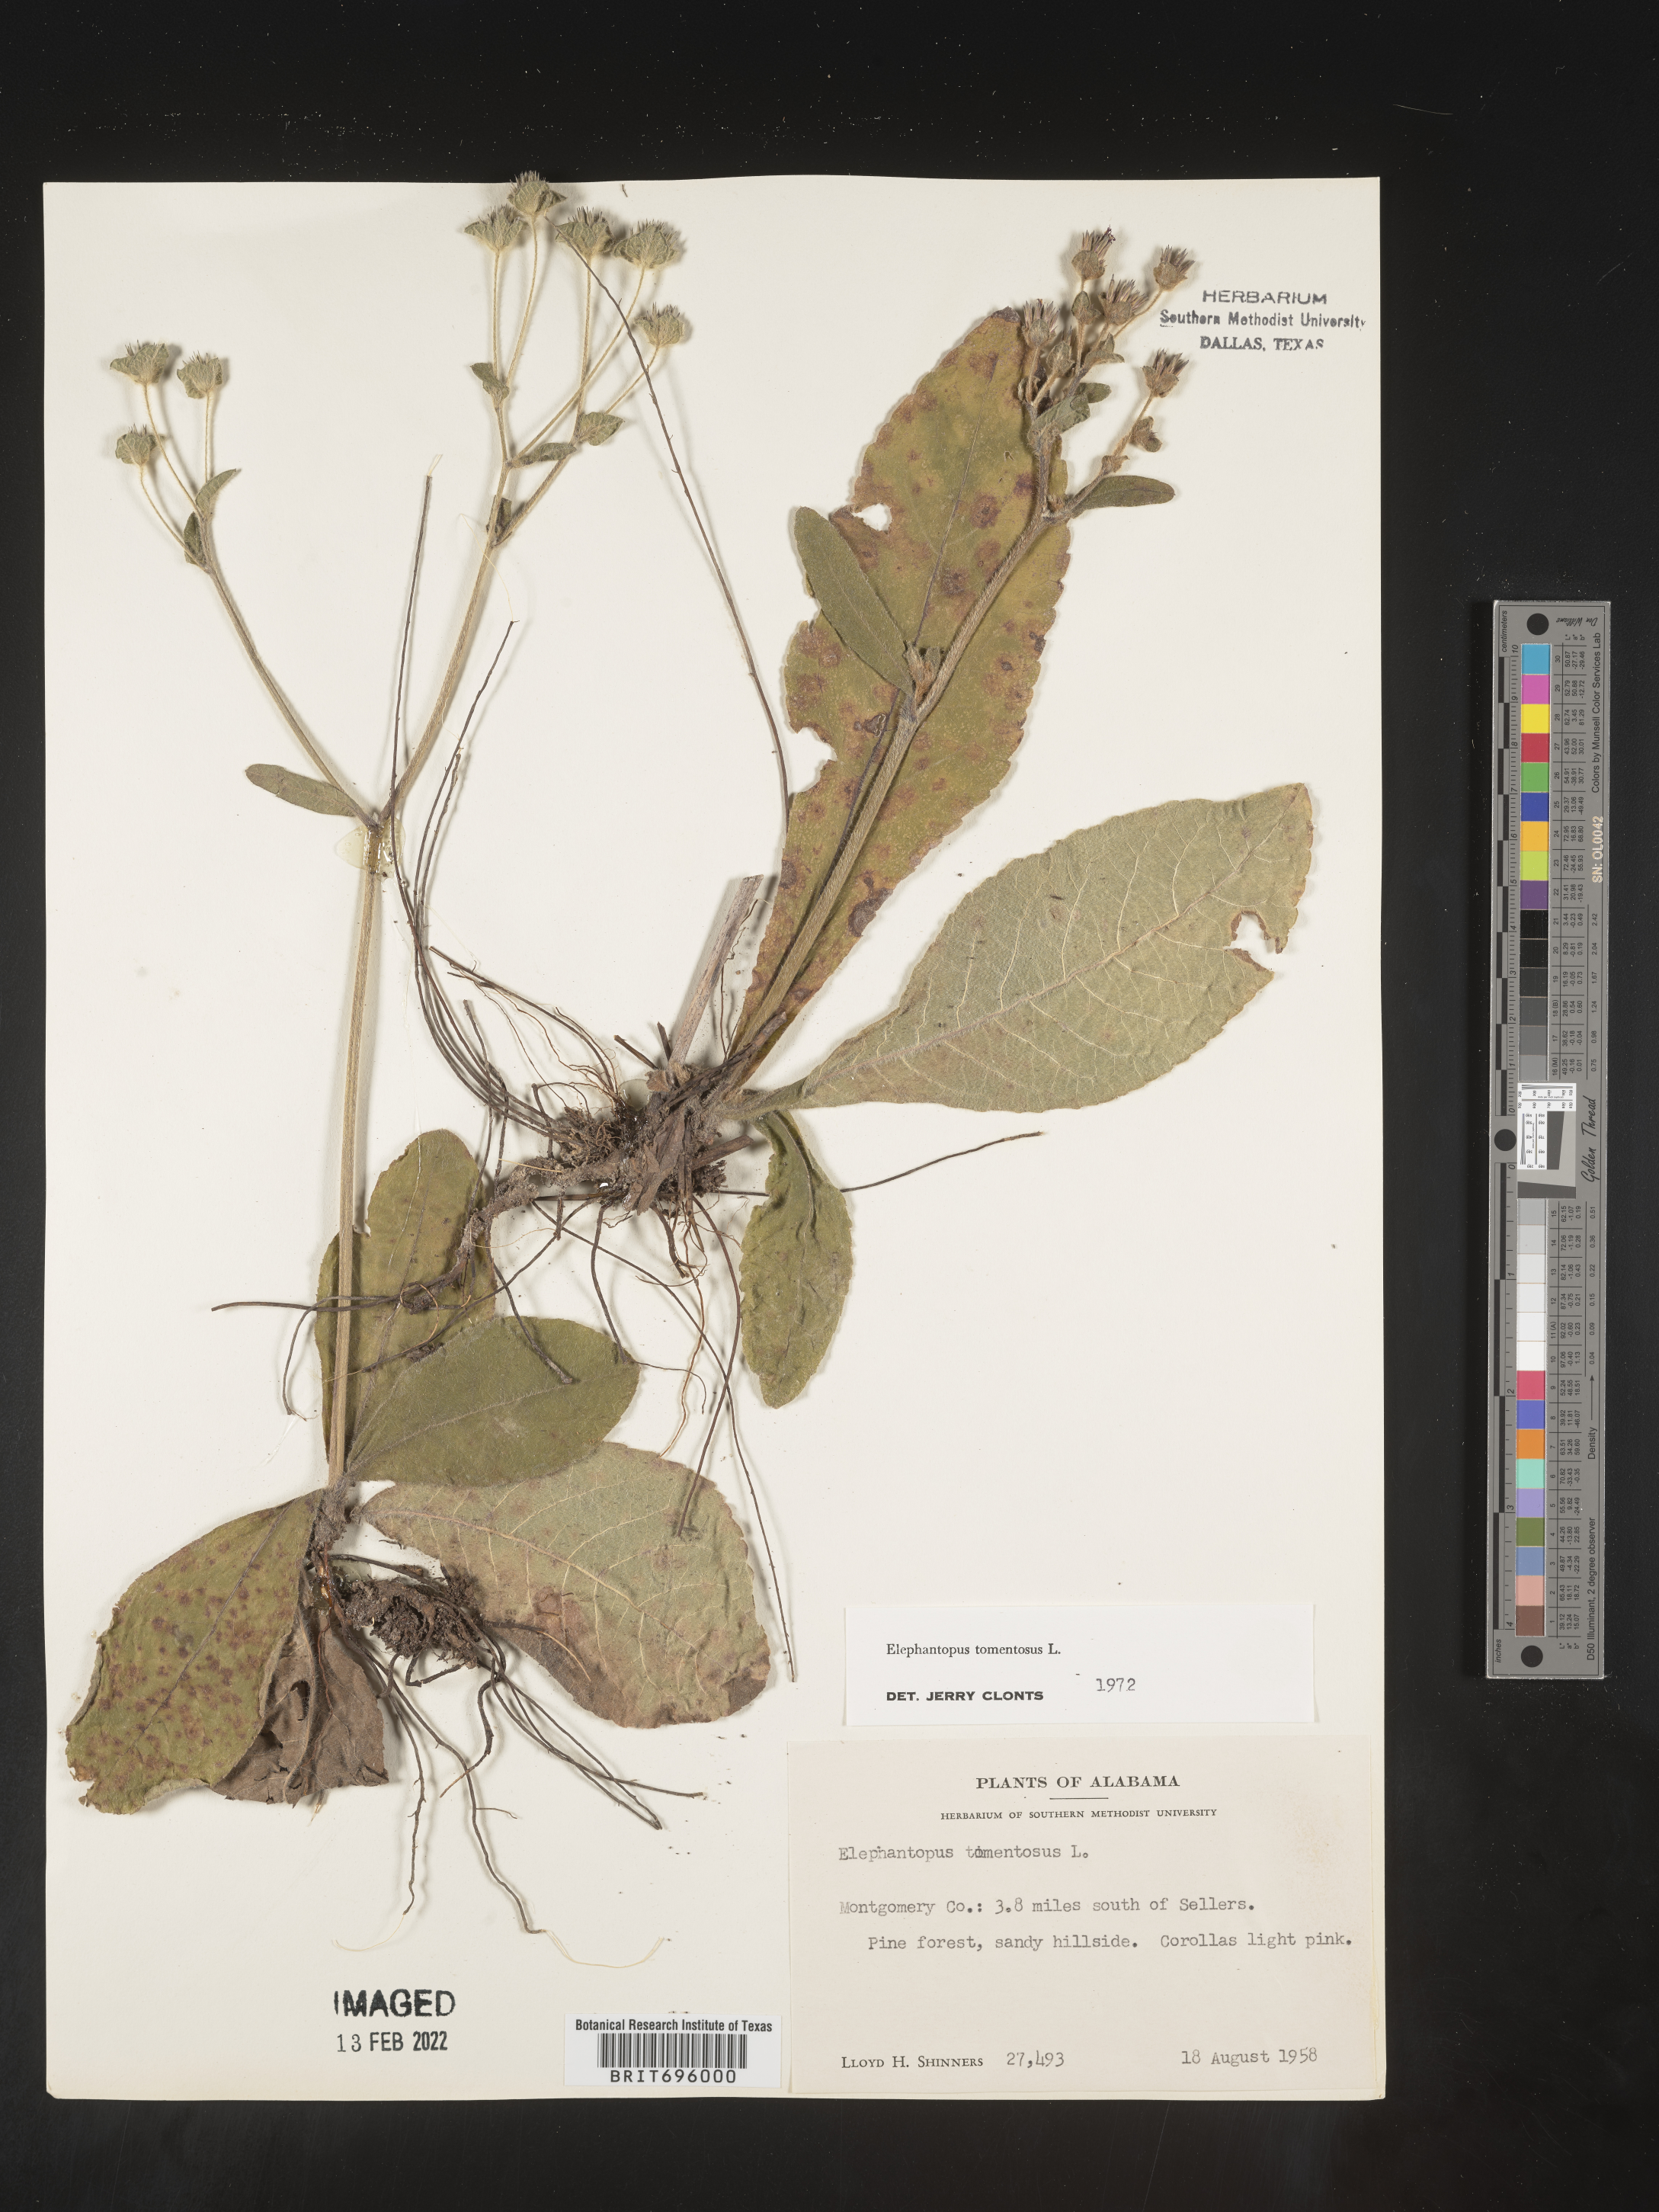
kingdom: Plantae
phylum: Tracheophyta
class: Magnoliopsida
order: Asterales
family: Asteraceae
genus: Elephantopus
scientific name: Elephantopus tomentosus
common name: Tobacco-weed
